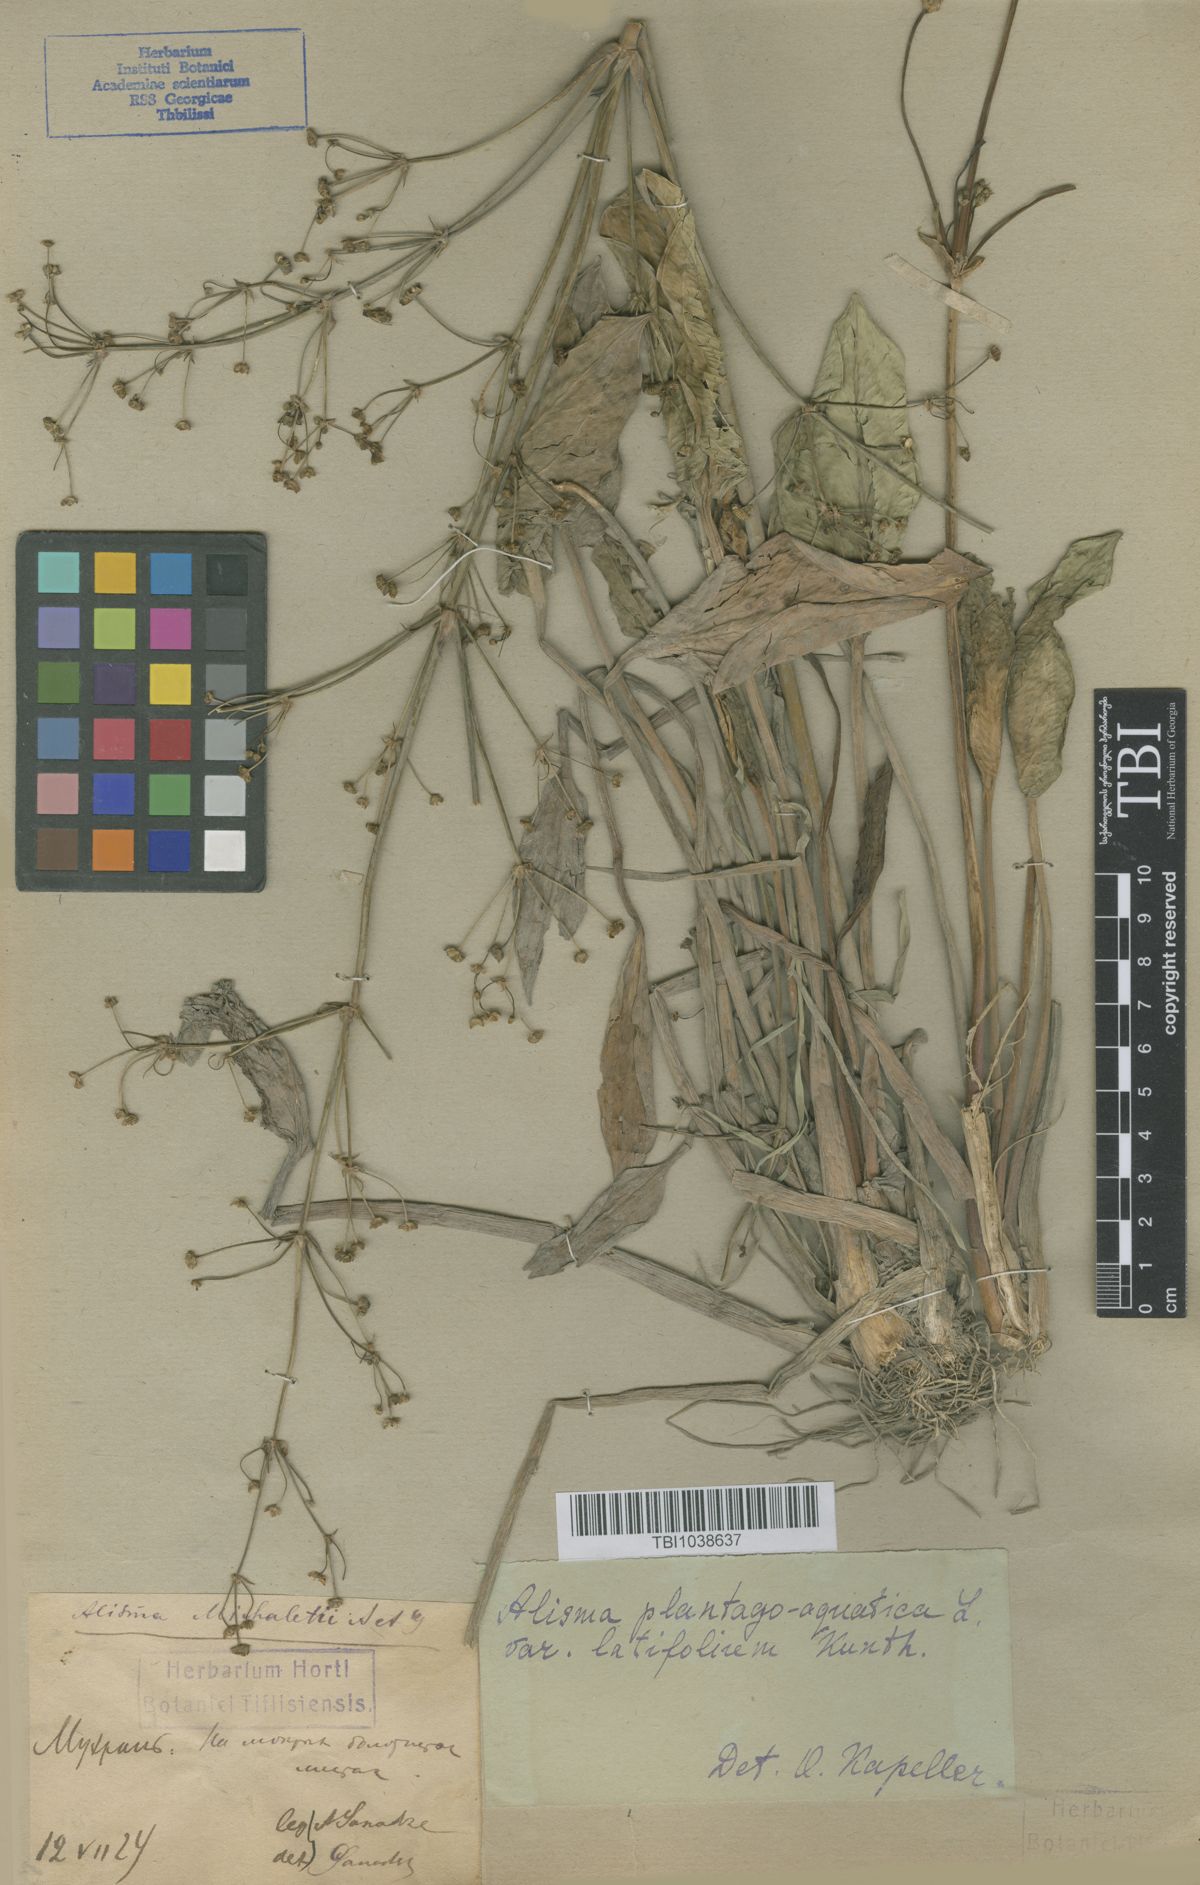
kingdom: Plantae
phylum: Tracheophyta
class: Liliopsida
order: Alismatales
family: Alismataceae
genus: Alisma
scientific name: Alisma plantago-aquatica
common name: Water-plantain
